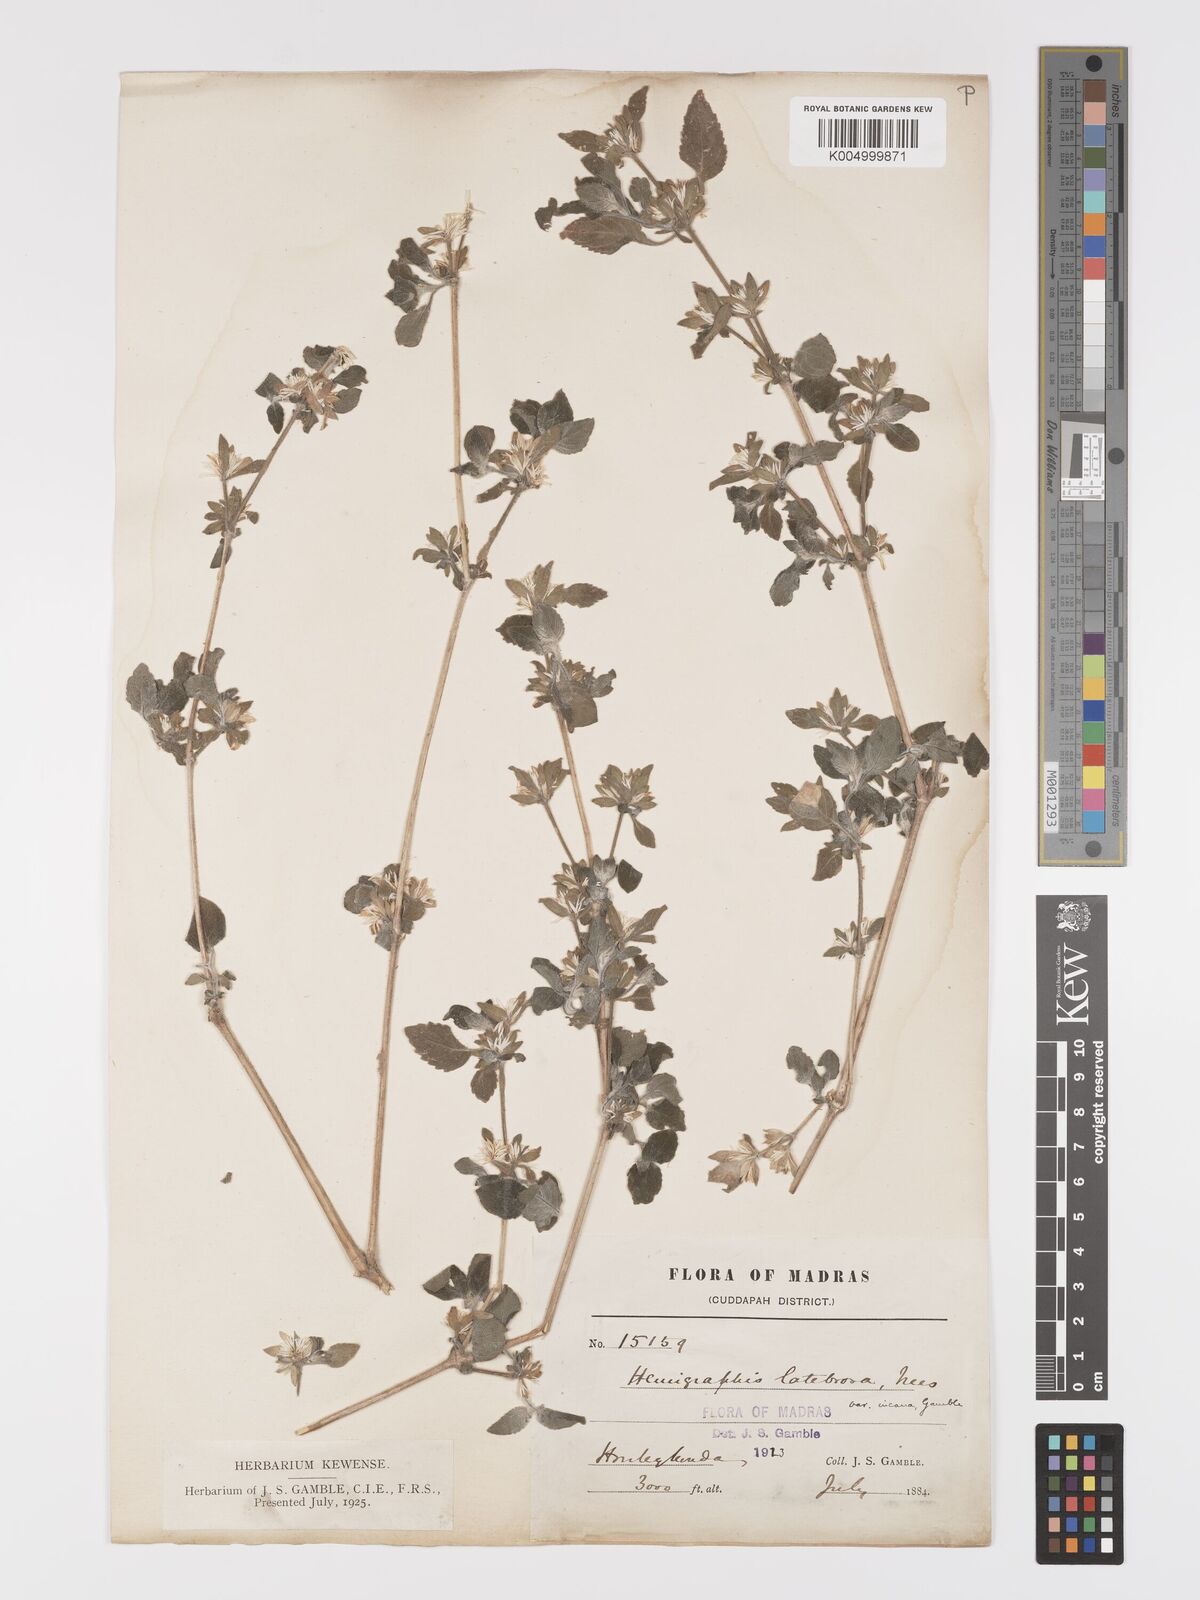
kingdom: Plantae
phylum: Tracheophyta
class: Magnoliopsida
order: Lamiales
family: Acanthaceae
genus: Strobilanthes
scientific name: Strobilanthes pavala
